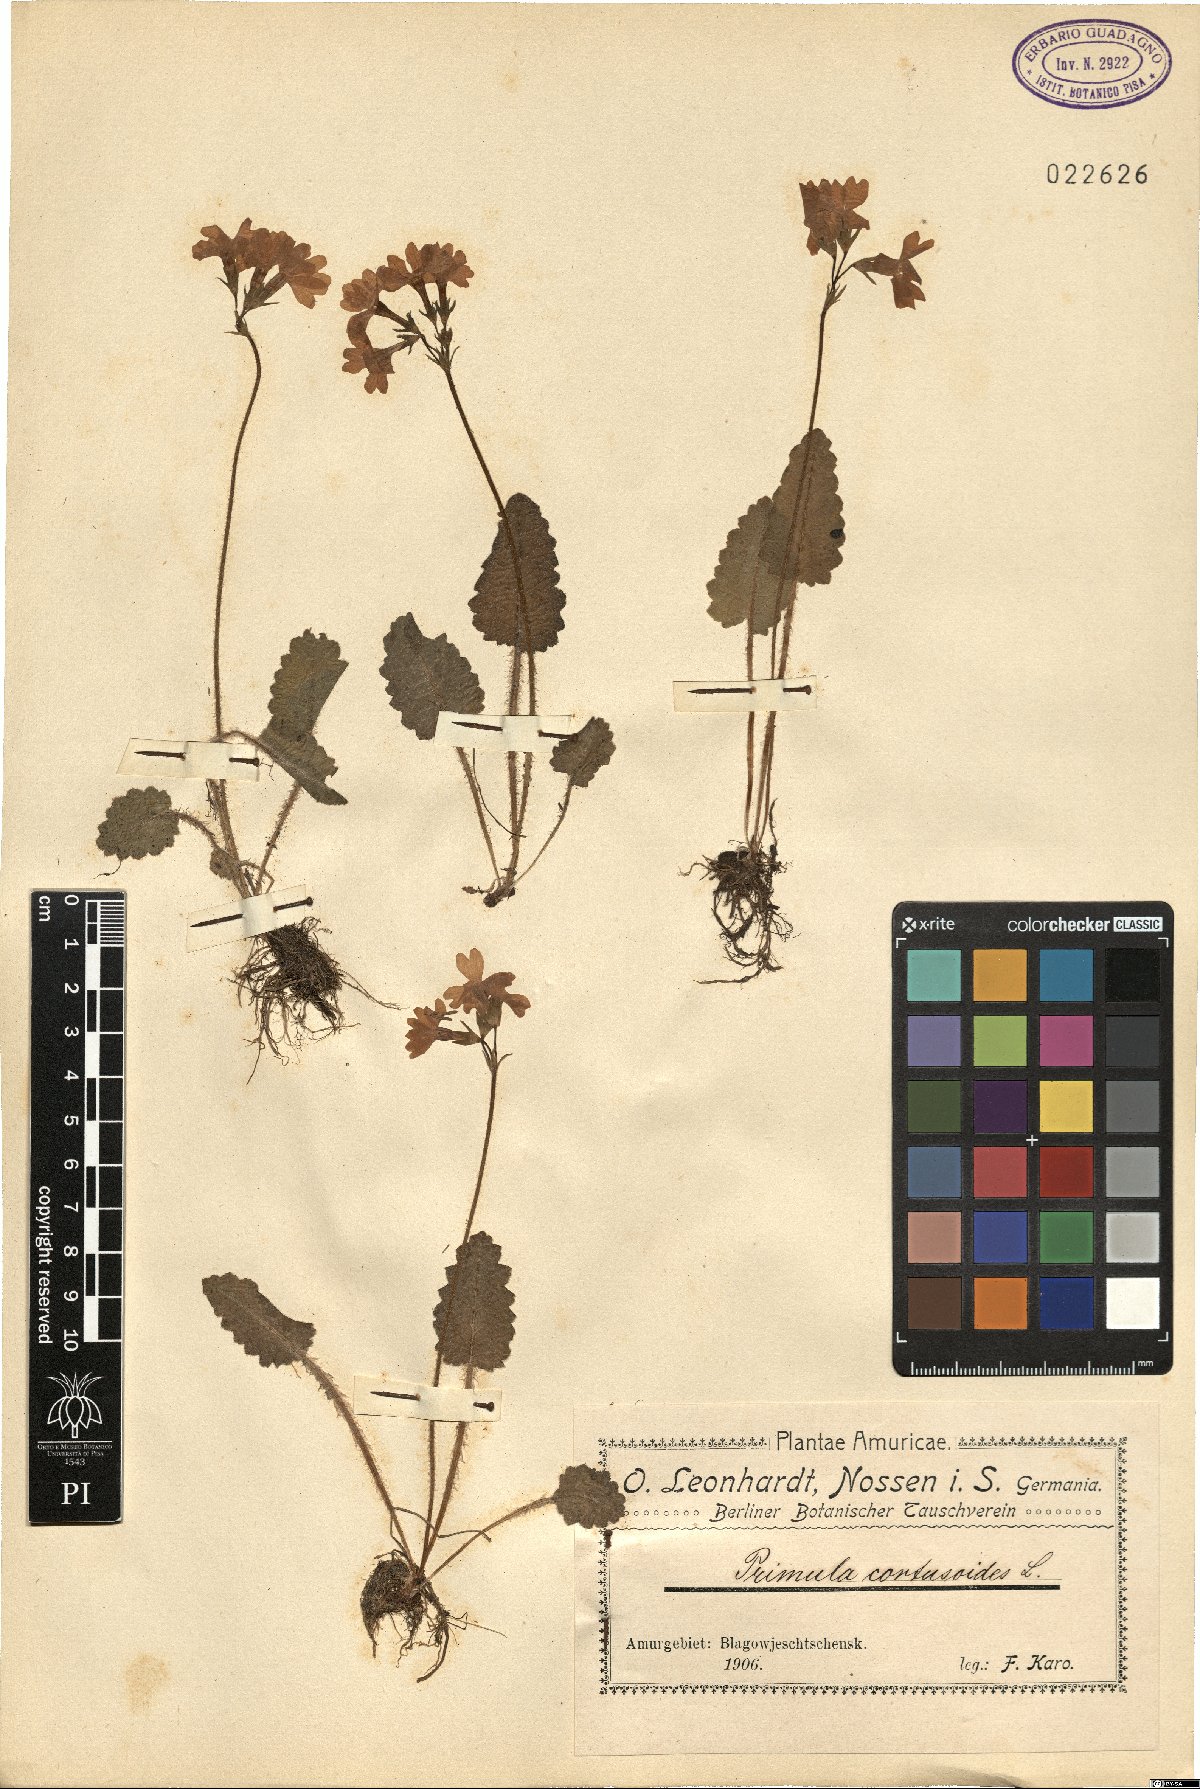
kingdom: Plantae
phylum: Tracheophyta
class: Magnoliopsida
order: Ericales
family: Primulaceae
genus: Primula
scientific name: Primula cortusoides
